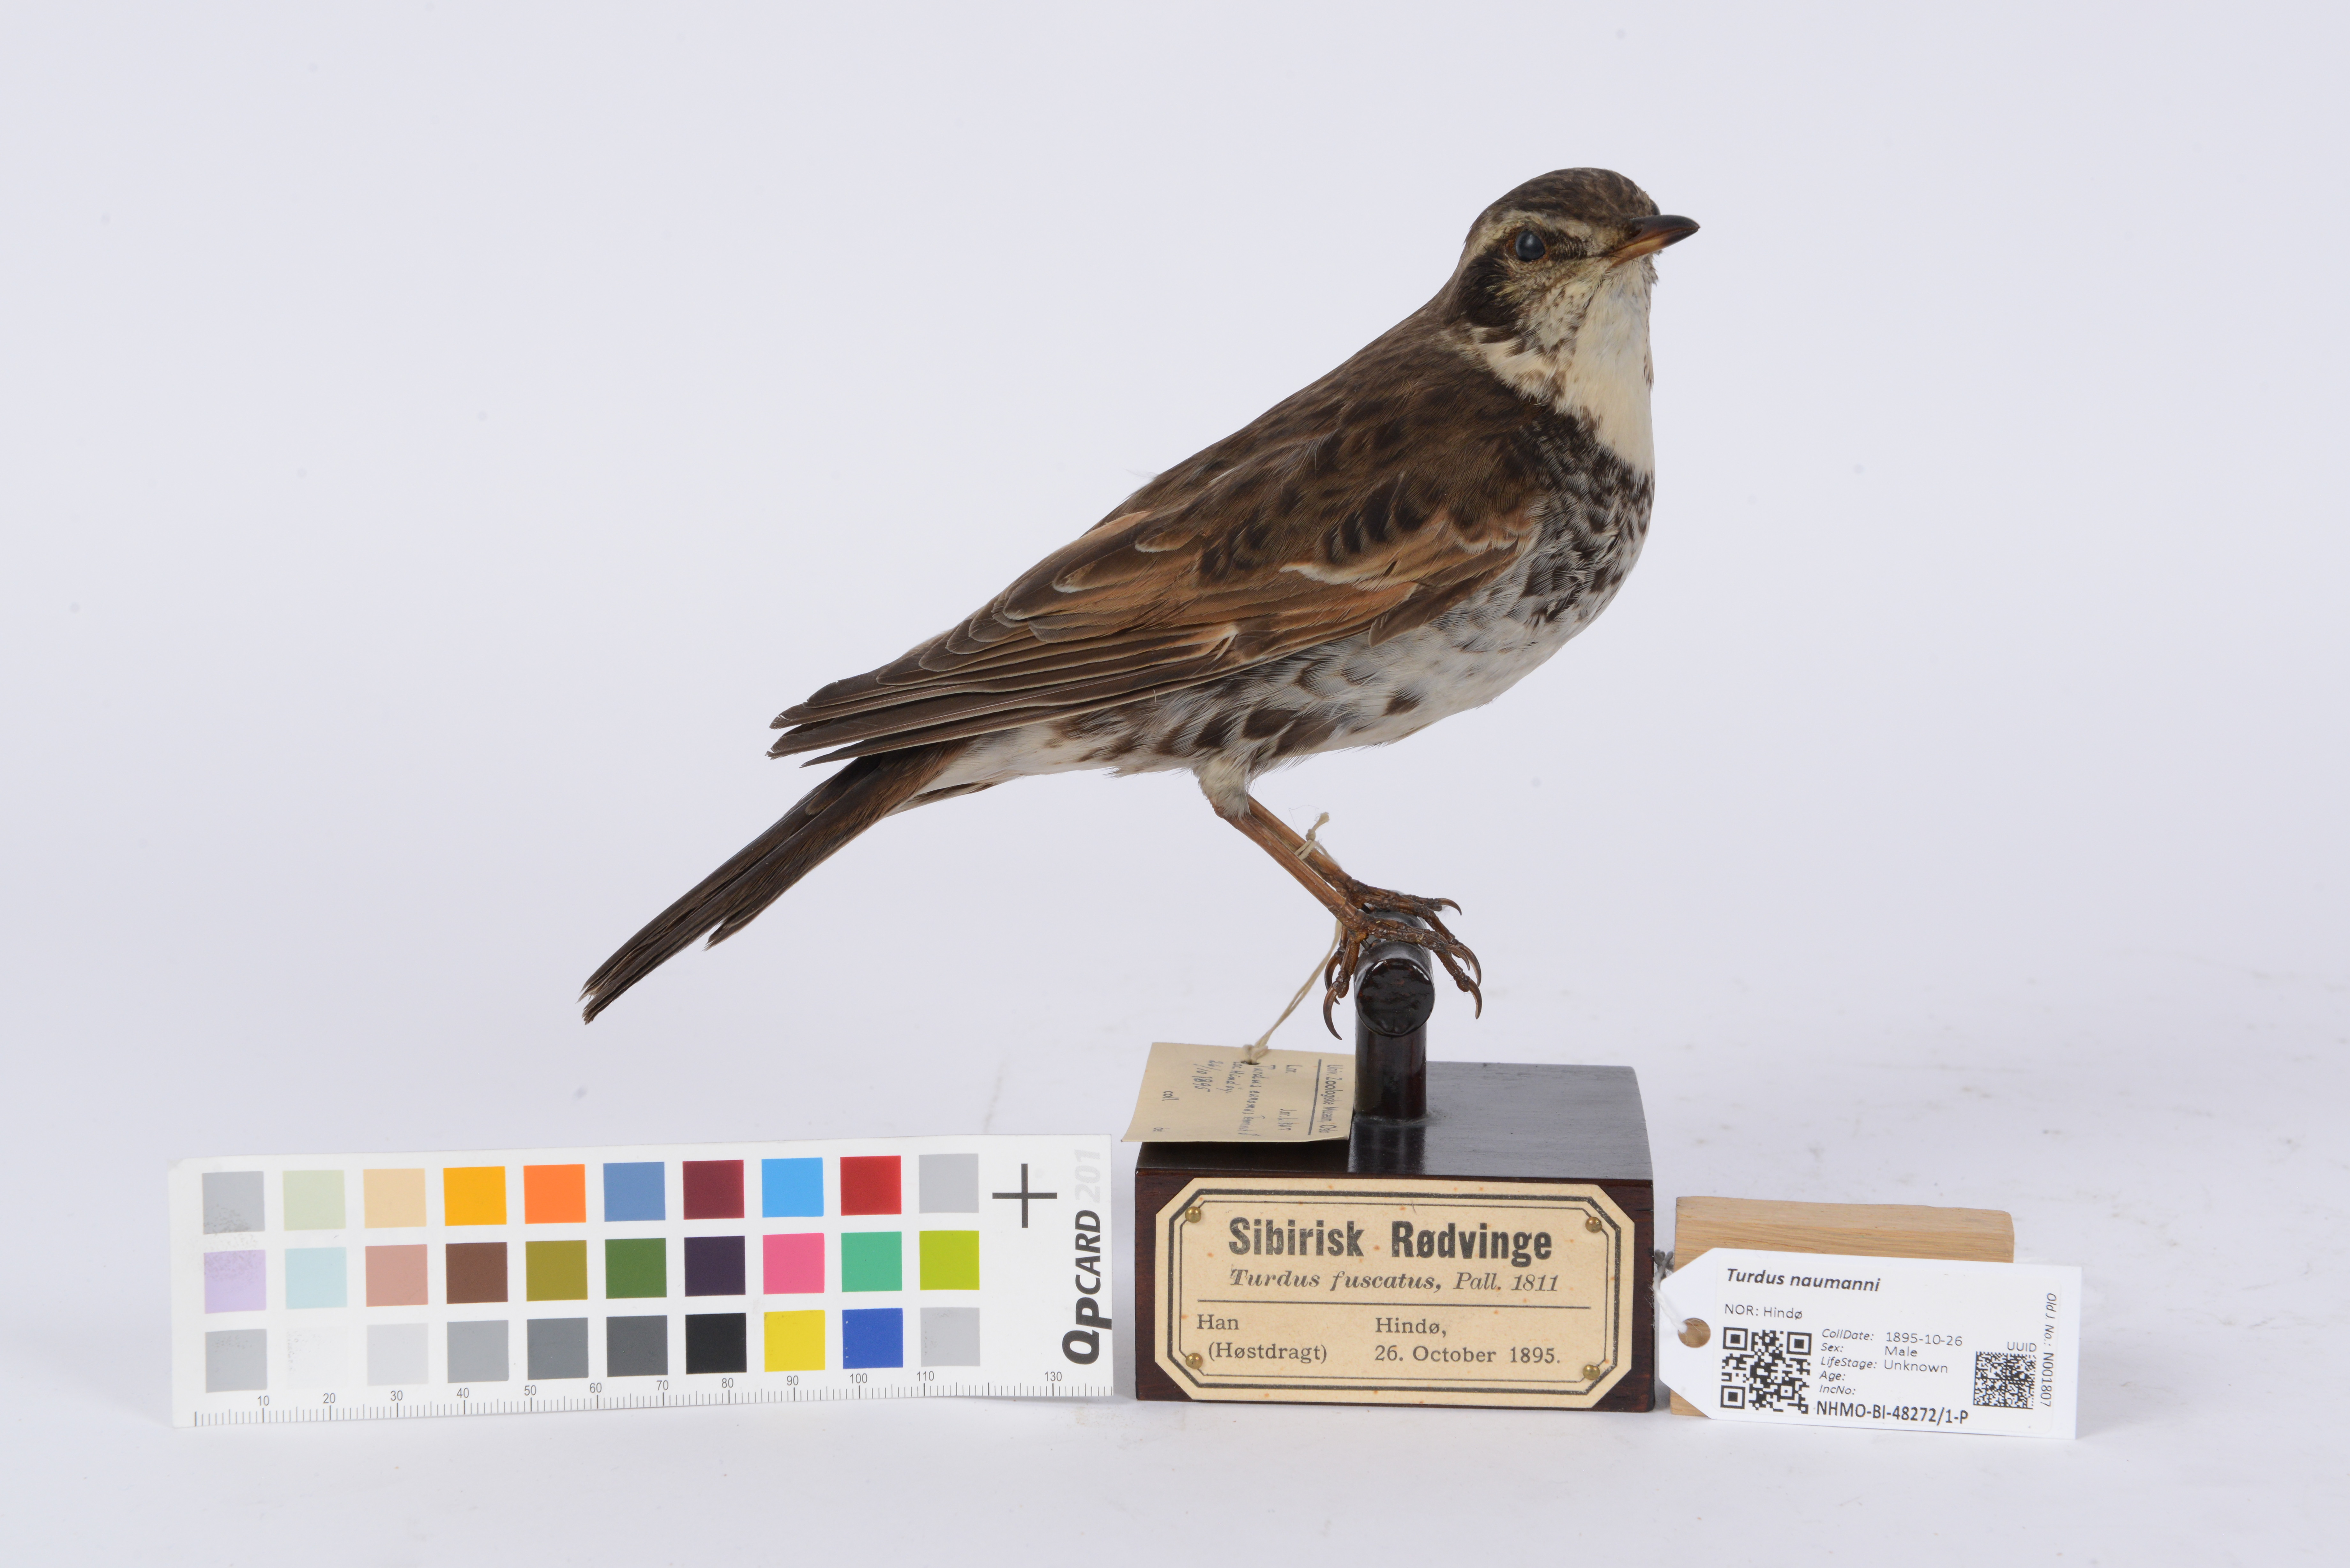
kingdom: Animalia
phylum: Chordata
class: Aves
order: Passeriformes
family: Turdidae
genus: Turdus
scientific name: Turdus naumanni
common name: Naumann's thrush
